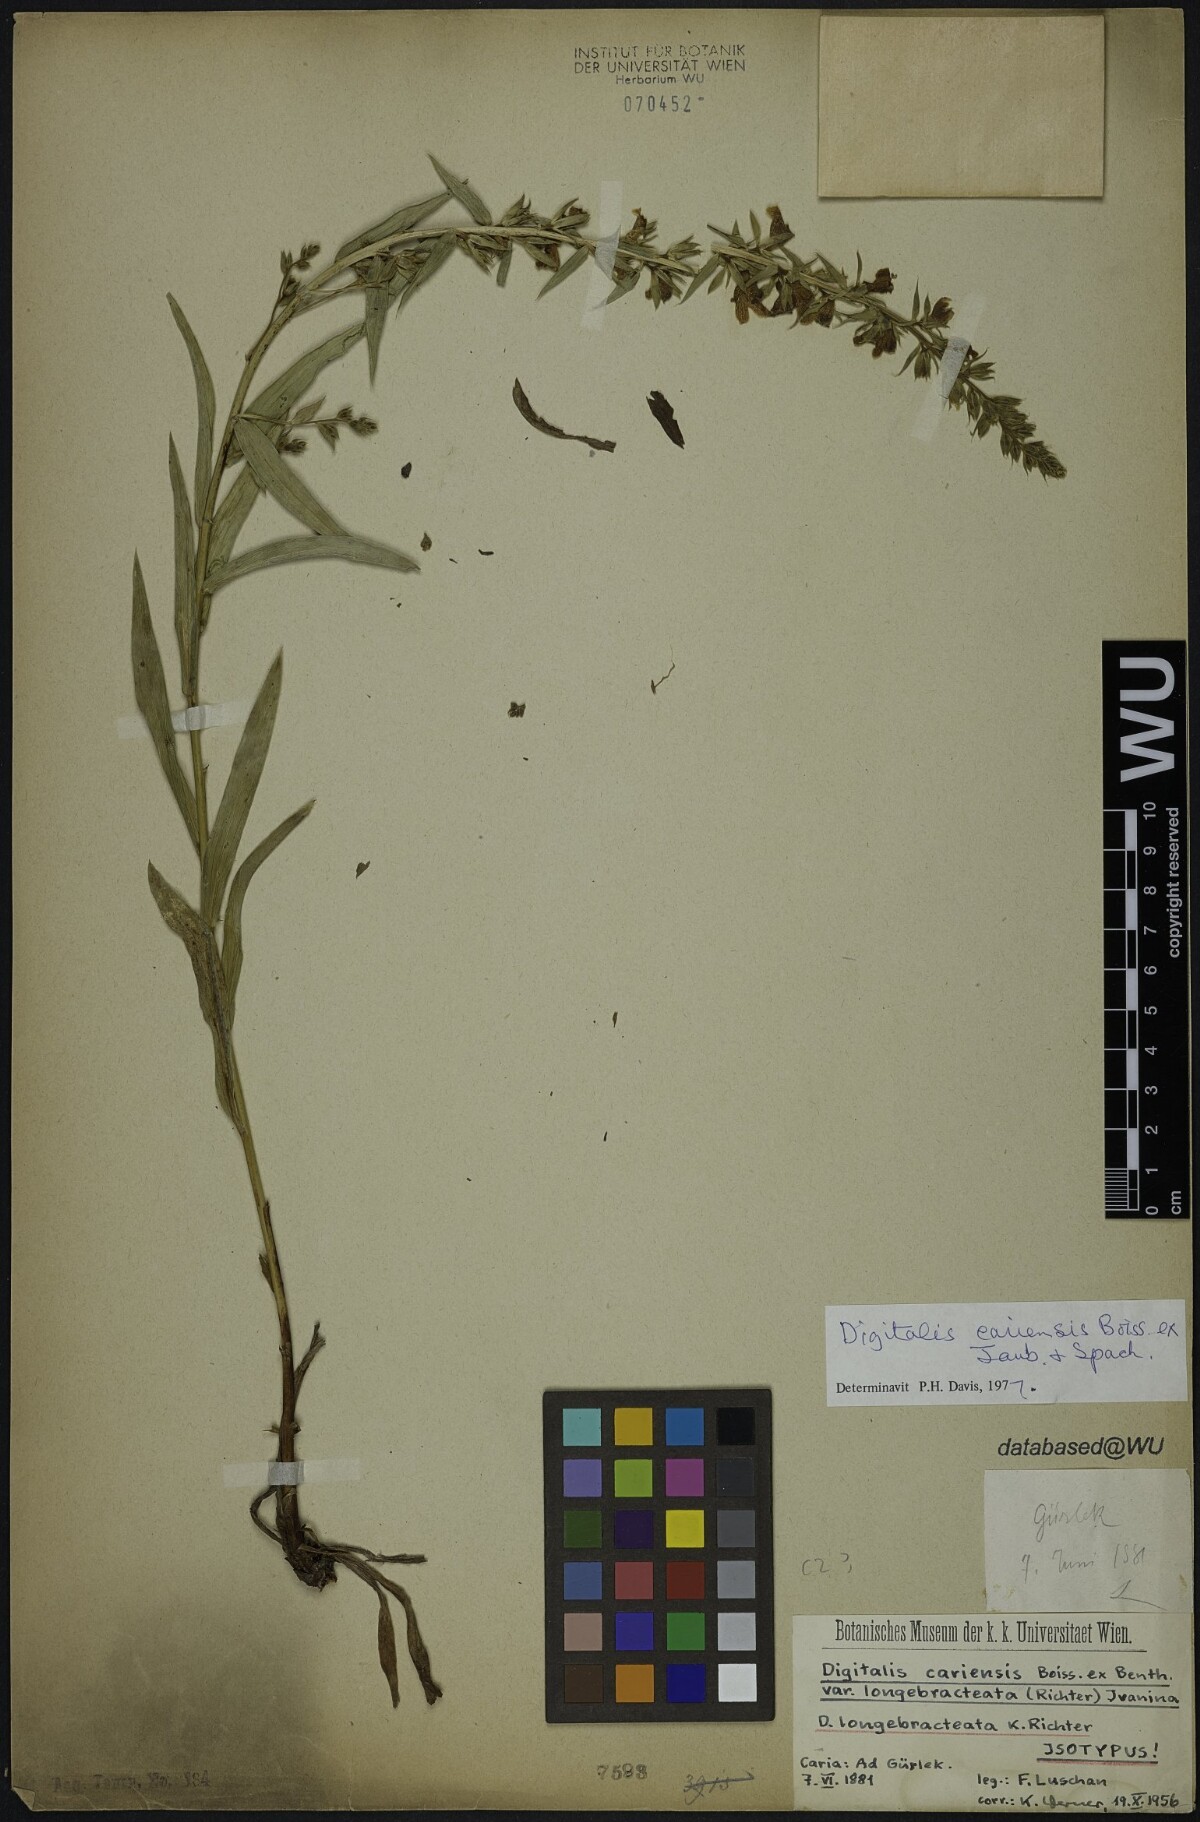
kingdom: Plantae
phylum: Tracheophyta
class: Magnoliopsida
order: Lamiales
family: Plantaginaceae
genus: Digitalis
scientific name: Digitalis longebracteata
